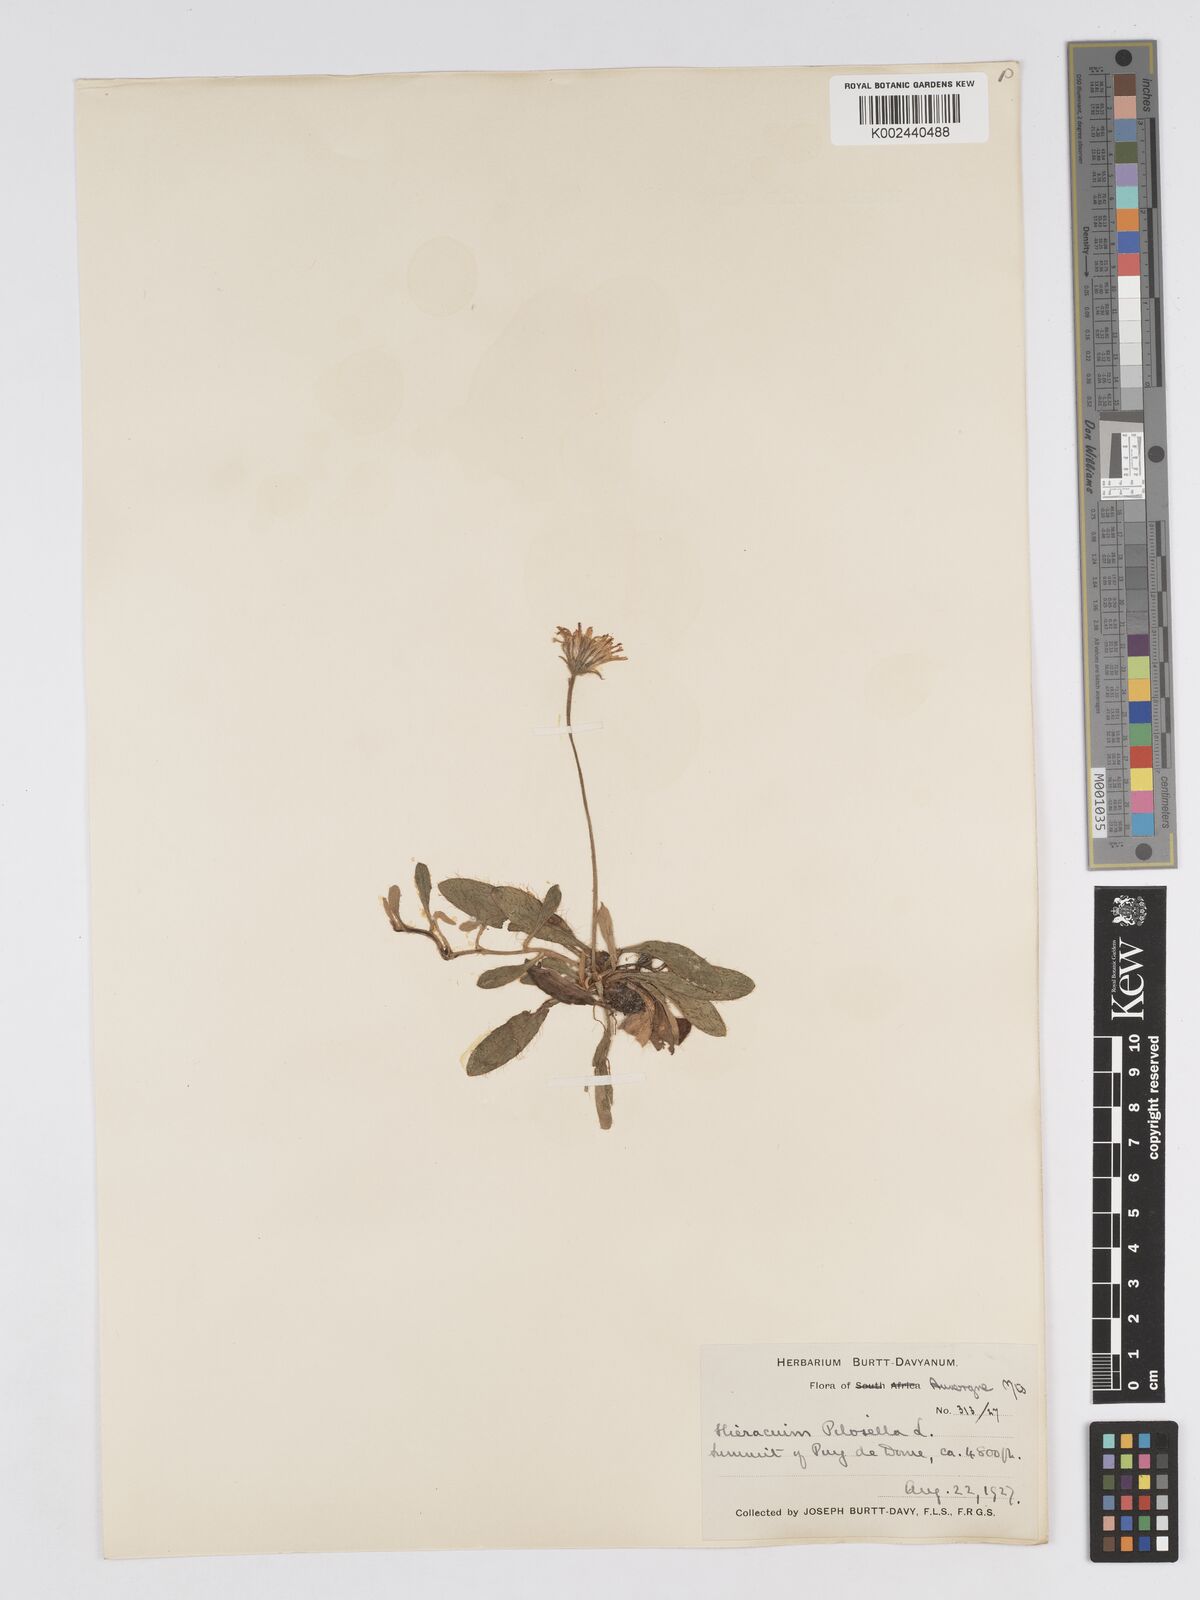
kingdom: Plantae
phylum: Tracheophyta
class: Magnoliopsida
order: Asterales
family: Asteraceae
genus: Pilosella
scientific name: Pilosella velutina
